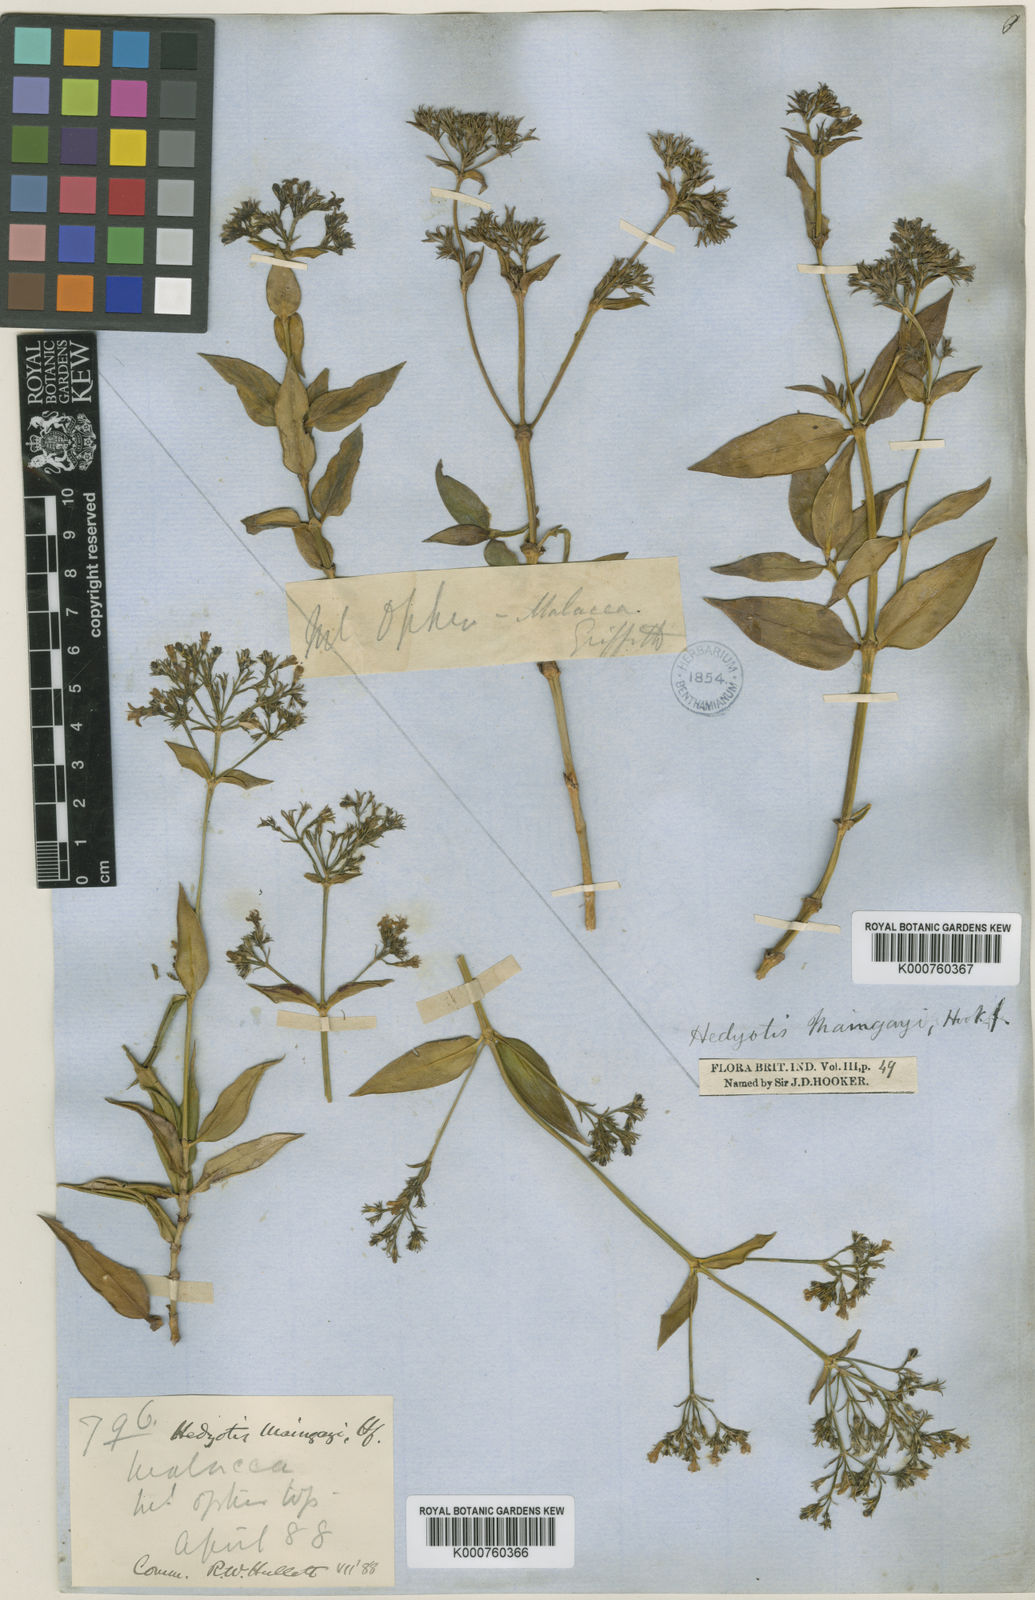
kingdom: Plantae
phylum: Tracheophyta
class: Magnoliopsida
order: Gentianales
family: Rubiaceae
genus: Hedyotis
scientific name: Hedyotis maingayi
